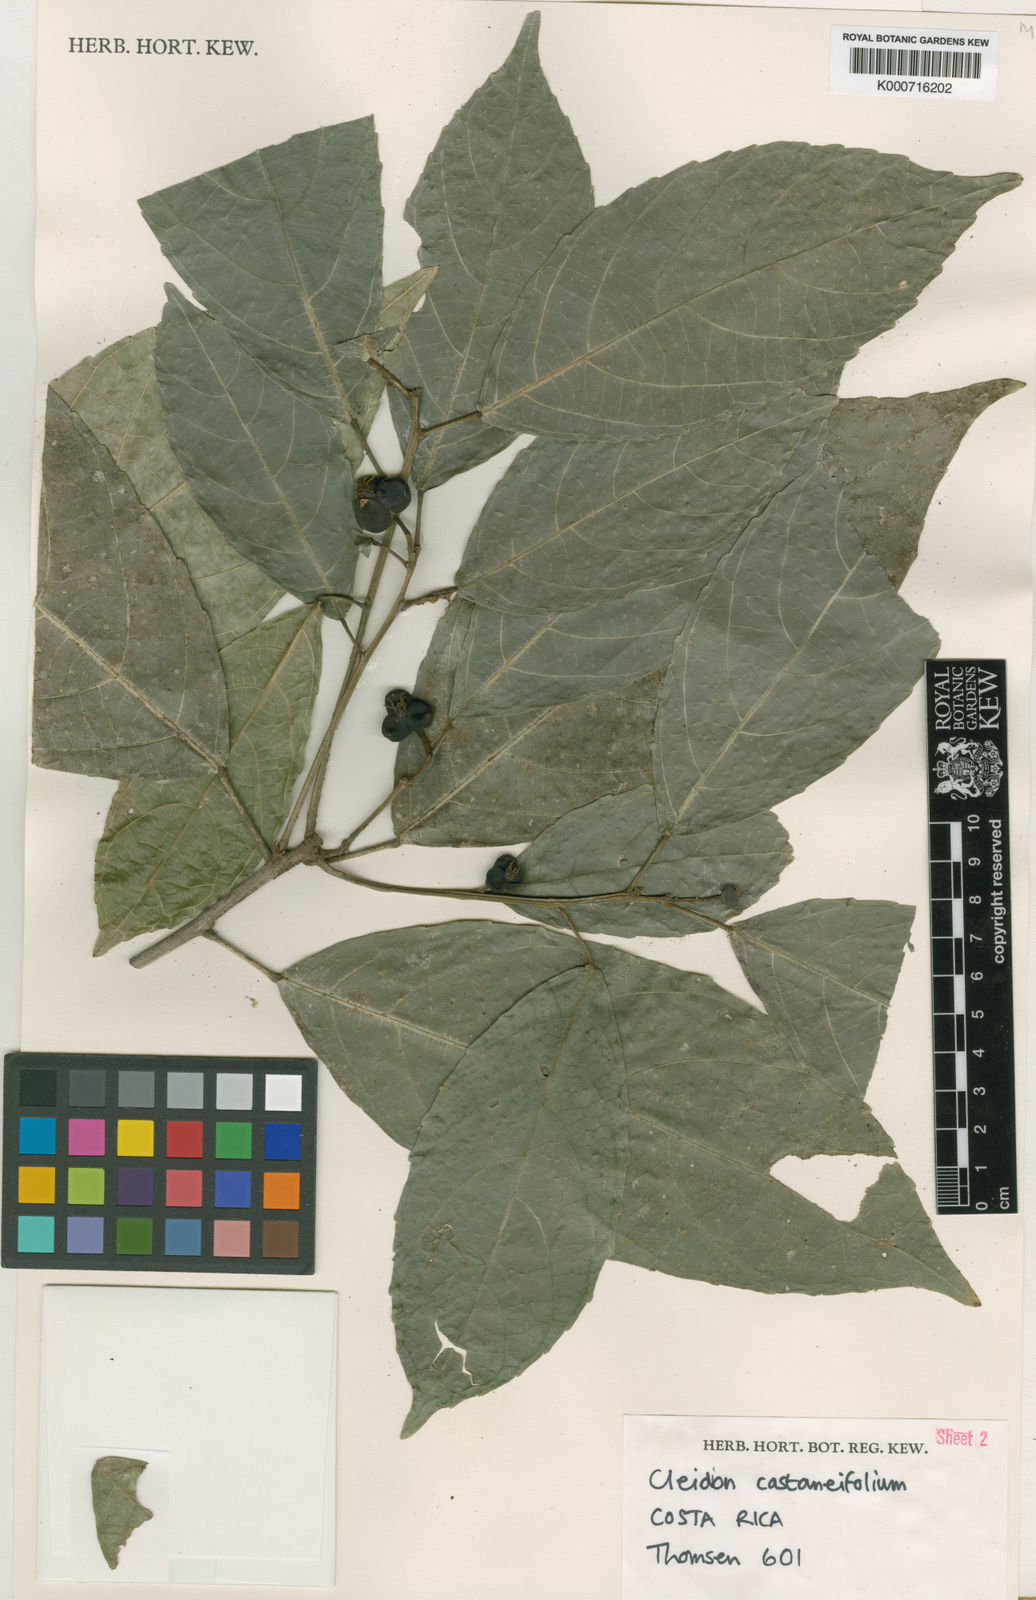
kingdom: Plantae
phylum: Tracheophyta
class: Magnoliopsida
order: Malpighiales
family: Euphorbiaceae
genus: Cleidion
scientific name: Cleidion
